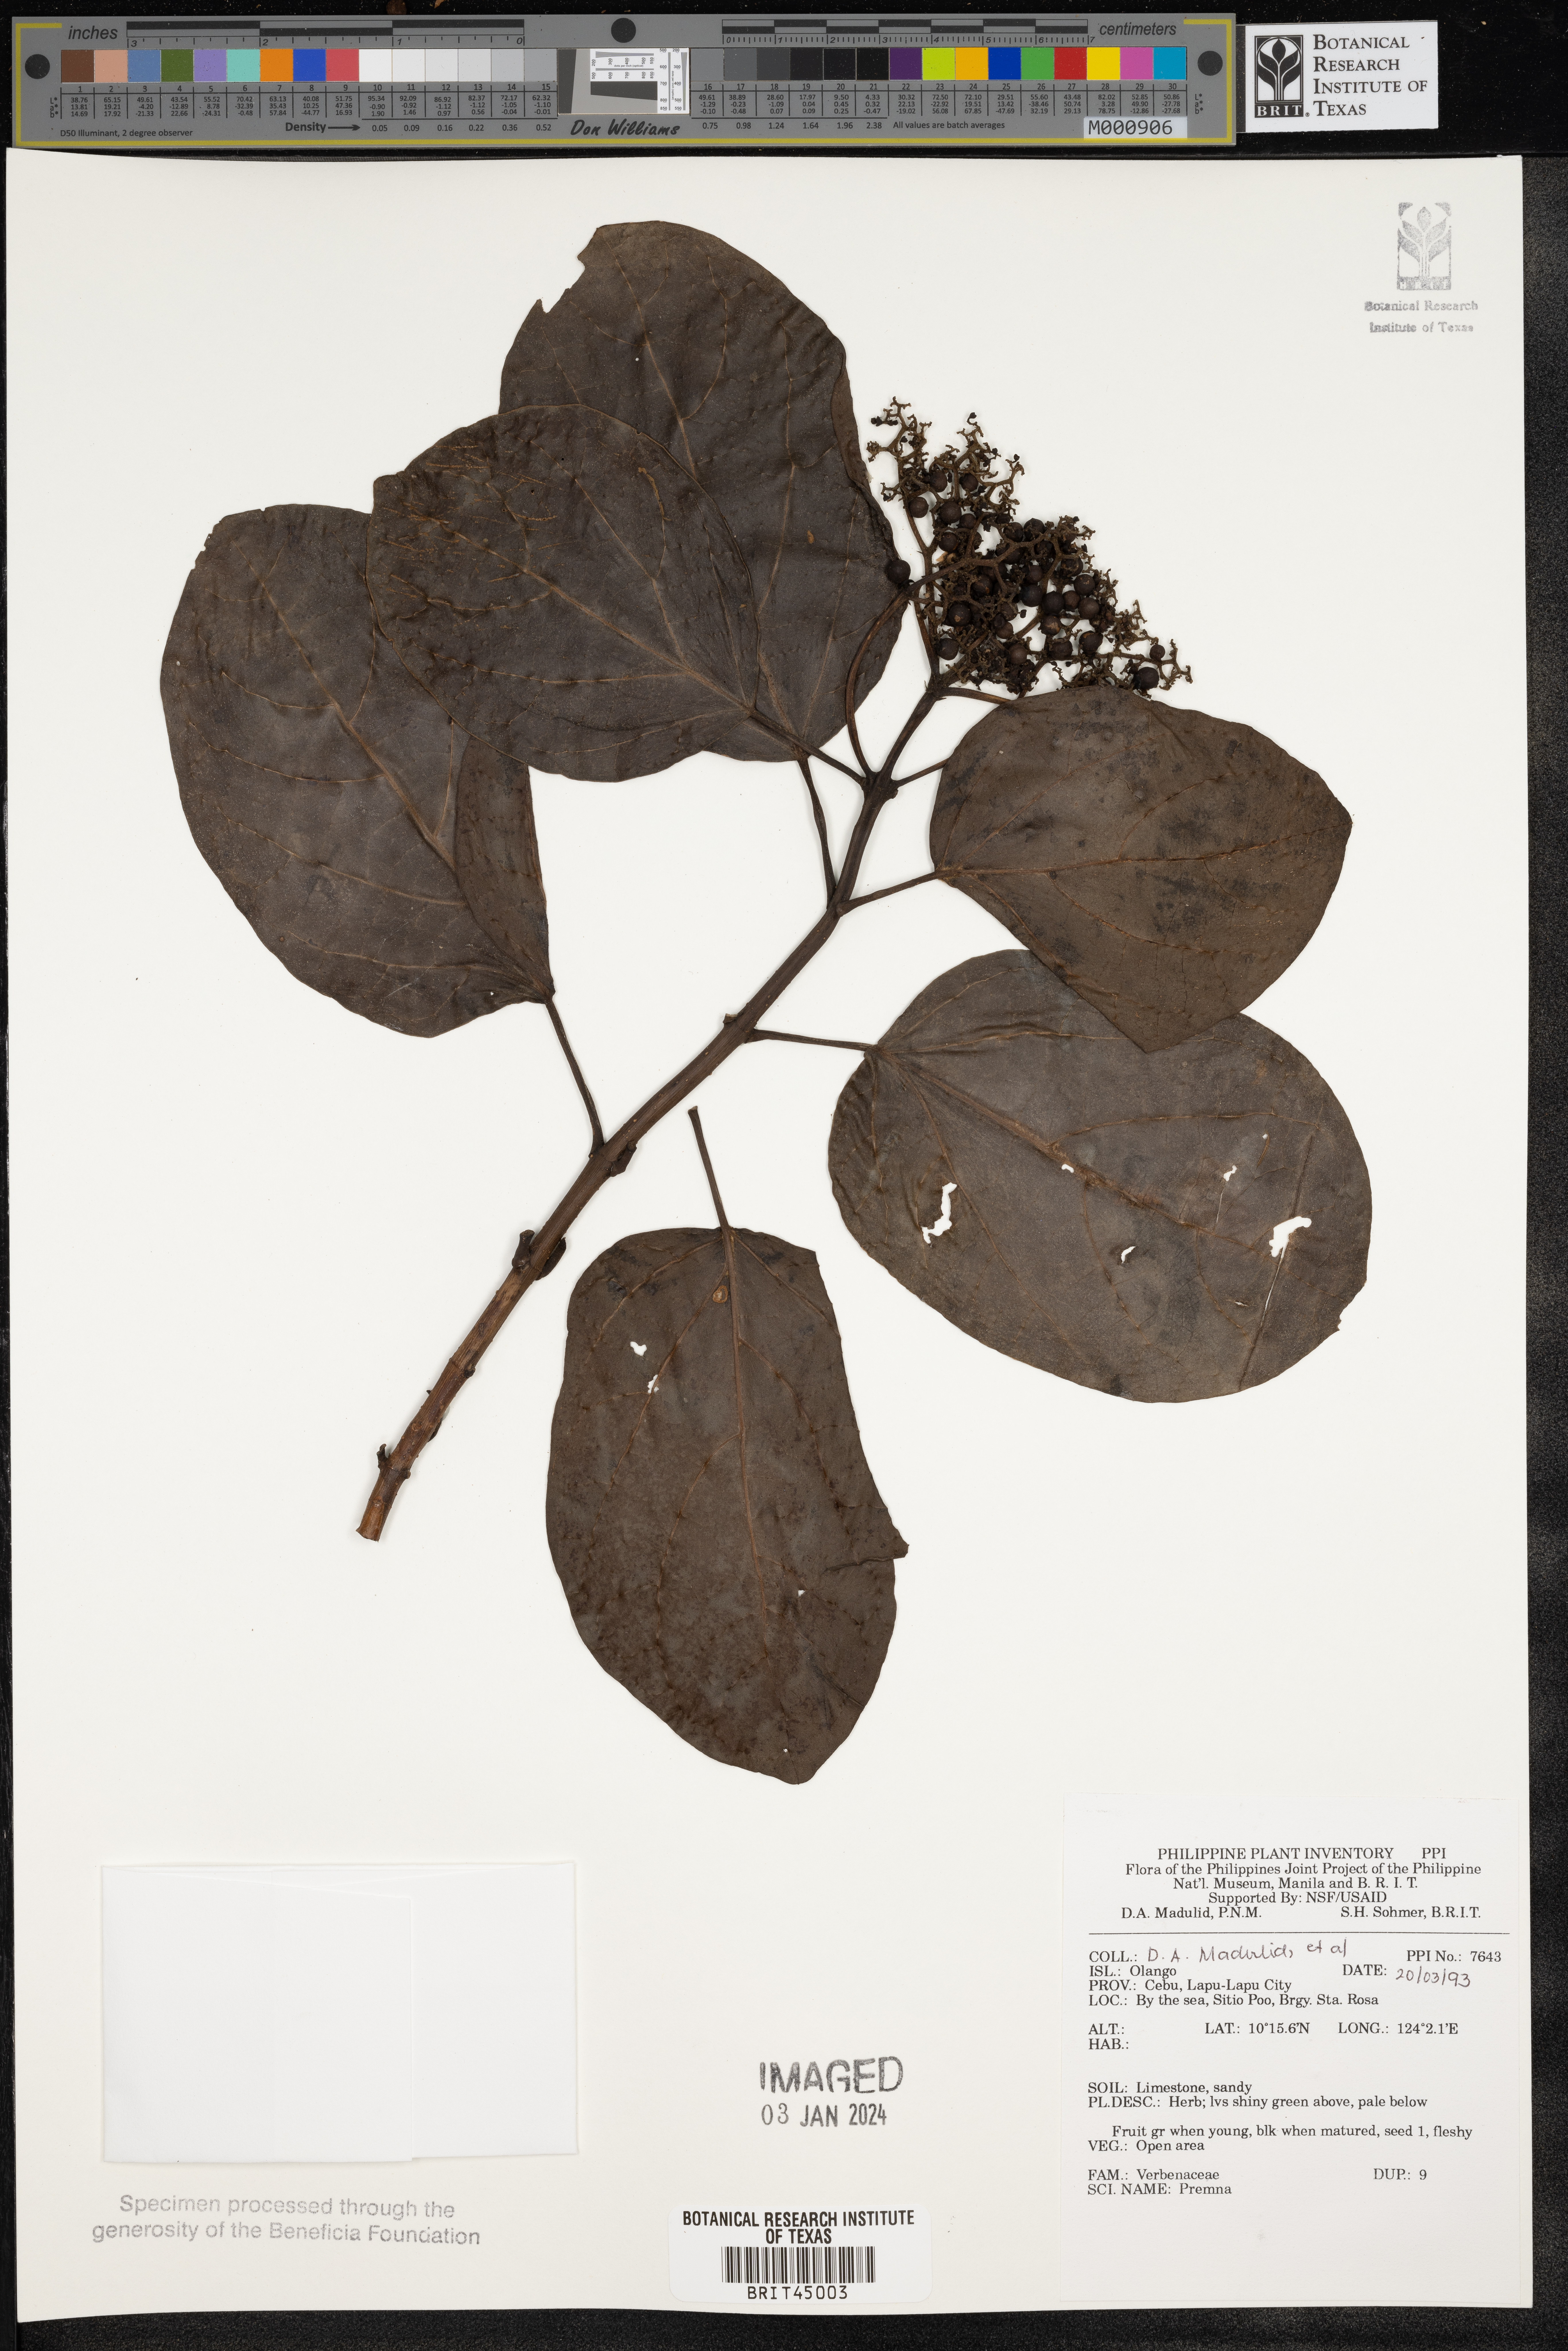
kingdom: Plantae
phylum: Tracheophyta
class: Magnoliopsida
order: Lamiales
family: Lamiaceae
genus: Premna
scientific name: Premna
